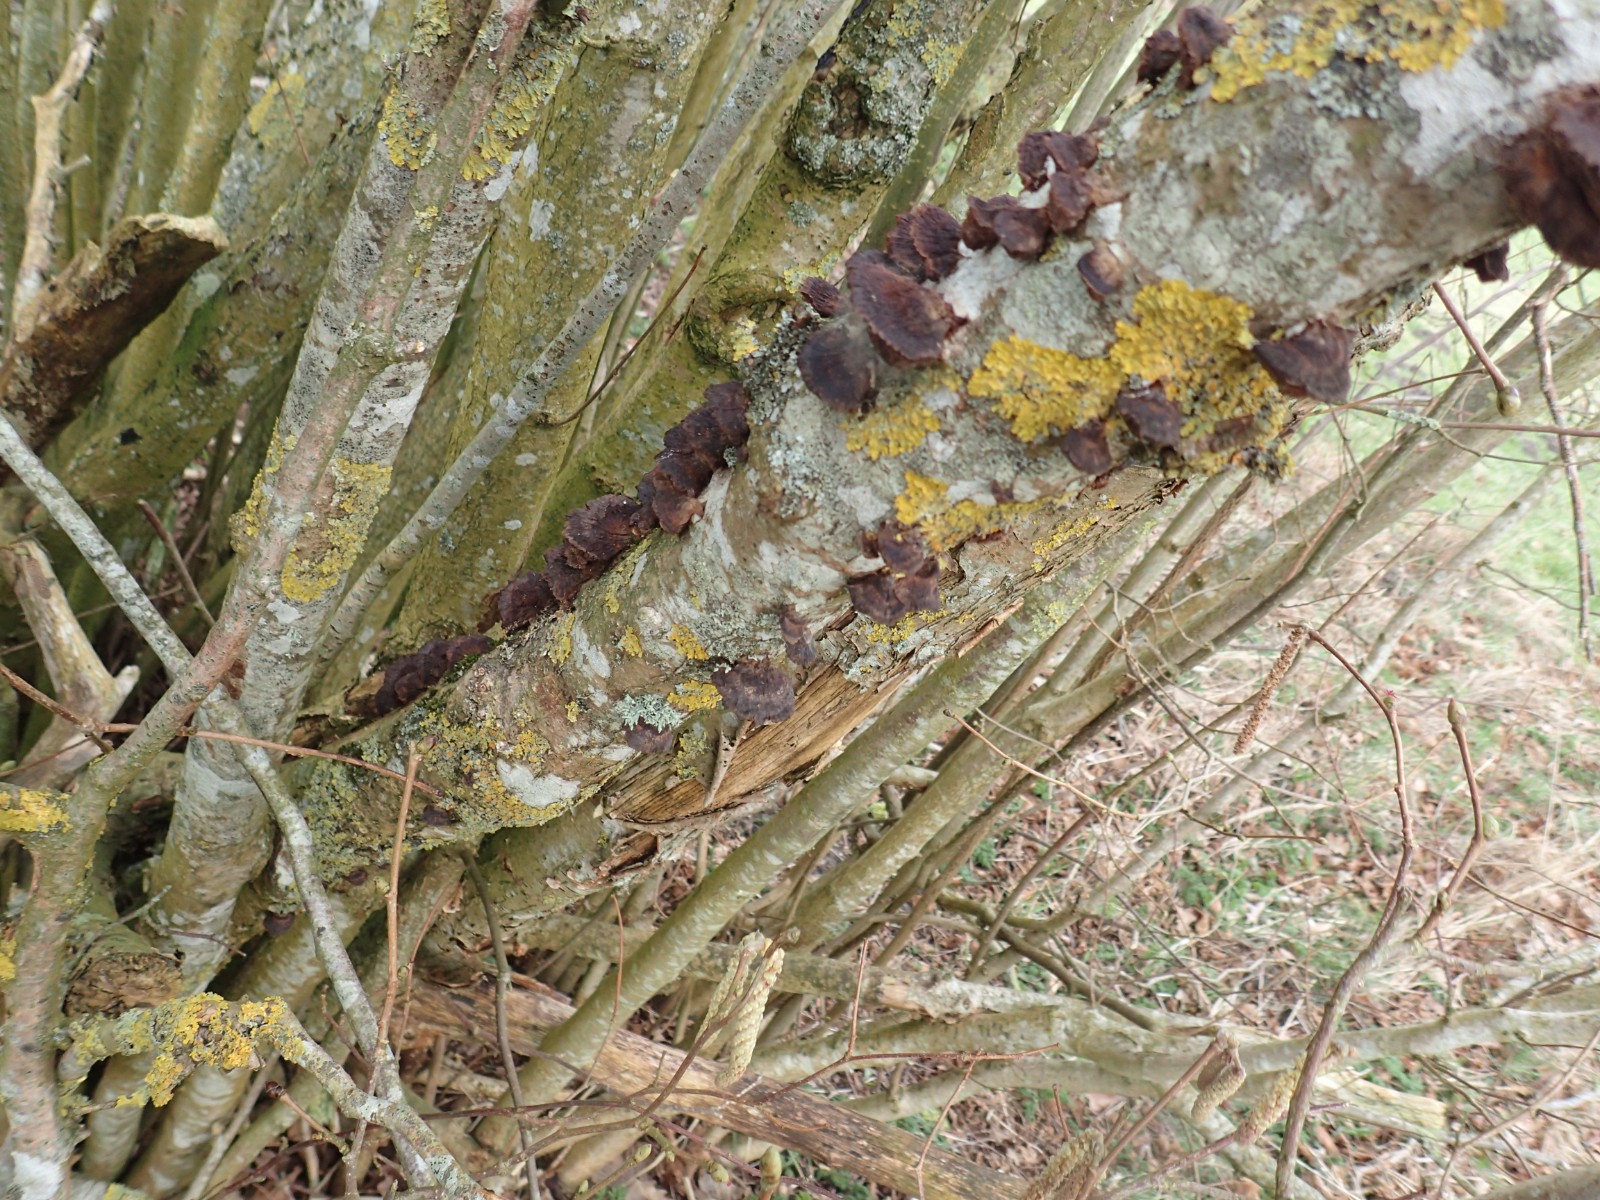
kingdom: Fungi
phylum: Basidiomycota
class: Agaricomycetes
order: Hymenochaetales
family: Hymenochaetaceae
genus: Xanthoporia
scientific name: Xanthoporia radiata
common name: elle-spejlporesvamp
